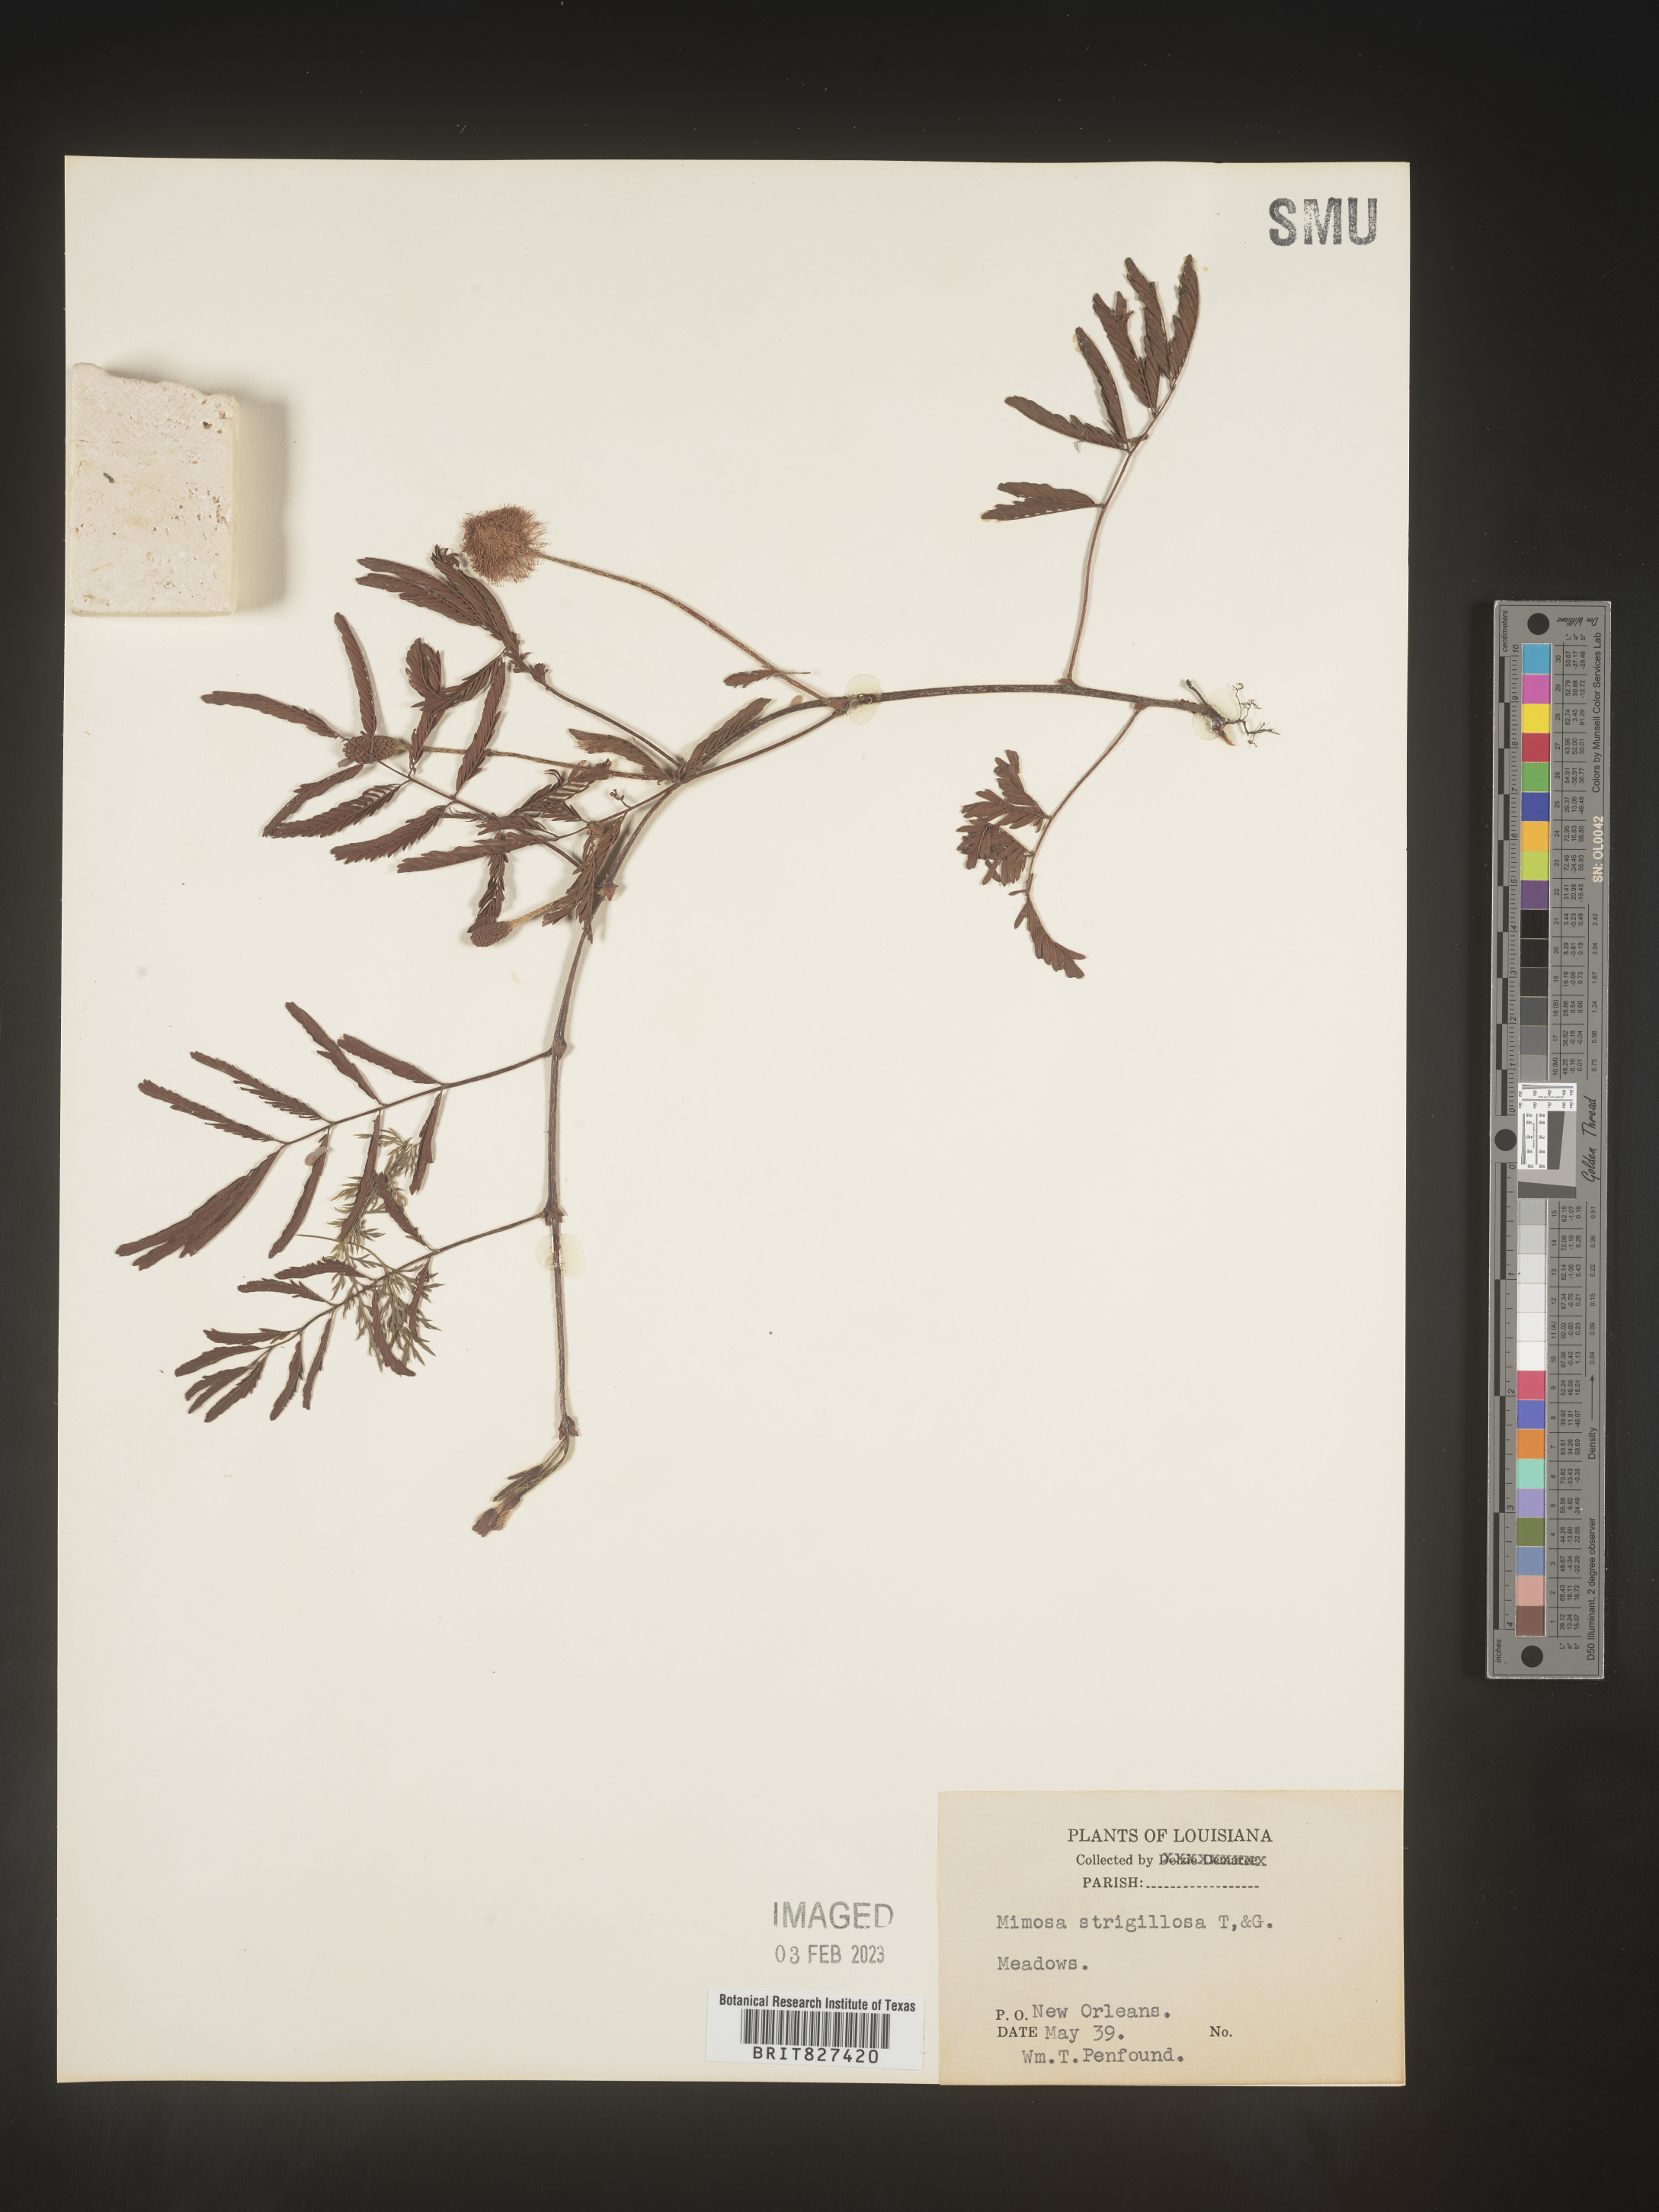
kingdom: Plantae
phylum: Tracheophyta
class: Magnoliopsida
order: Fabales
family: Fabaceae
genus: Mimosa
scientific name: Mimosa strigillosa
